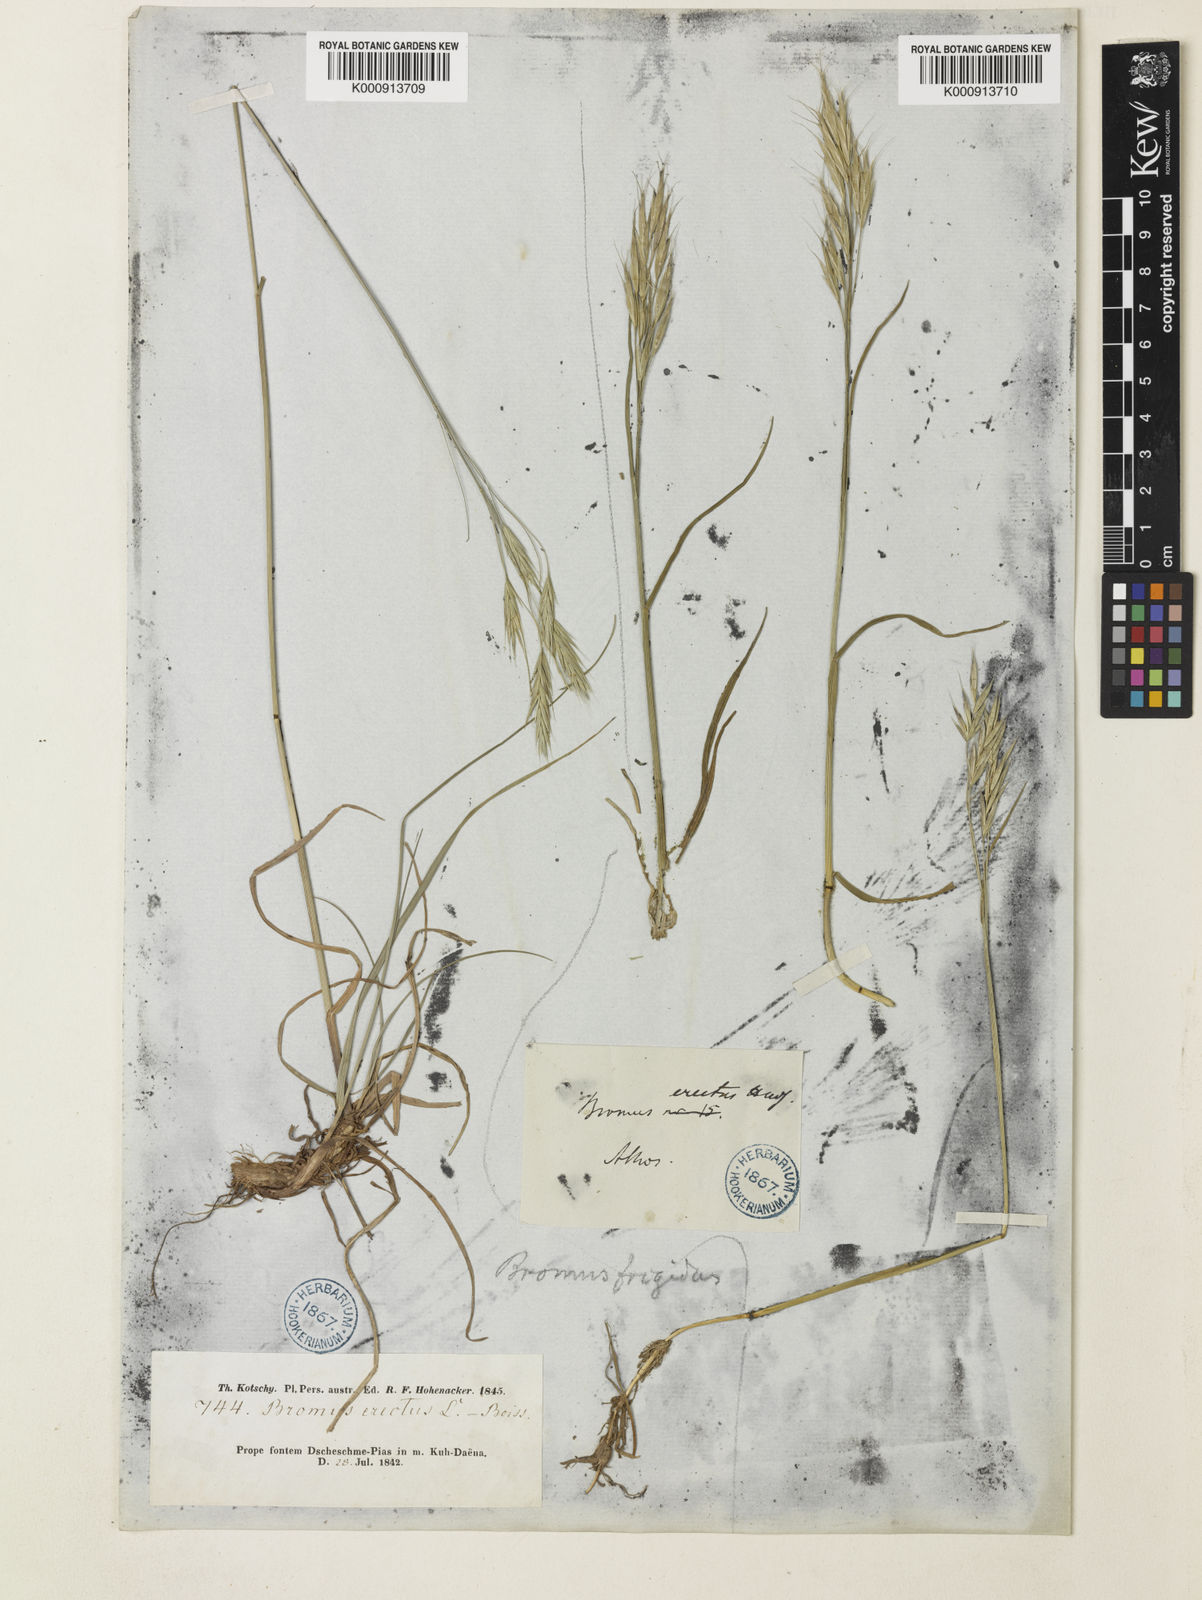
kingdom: Plantae
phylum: Tracheophyta
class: Liliopsida
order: Poales
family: Poaceae
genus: Bromus
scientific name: Bromus frigidus
